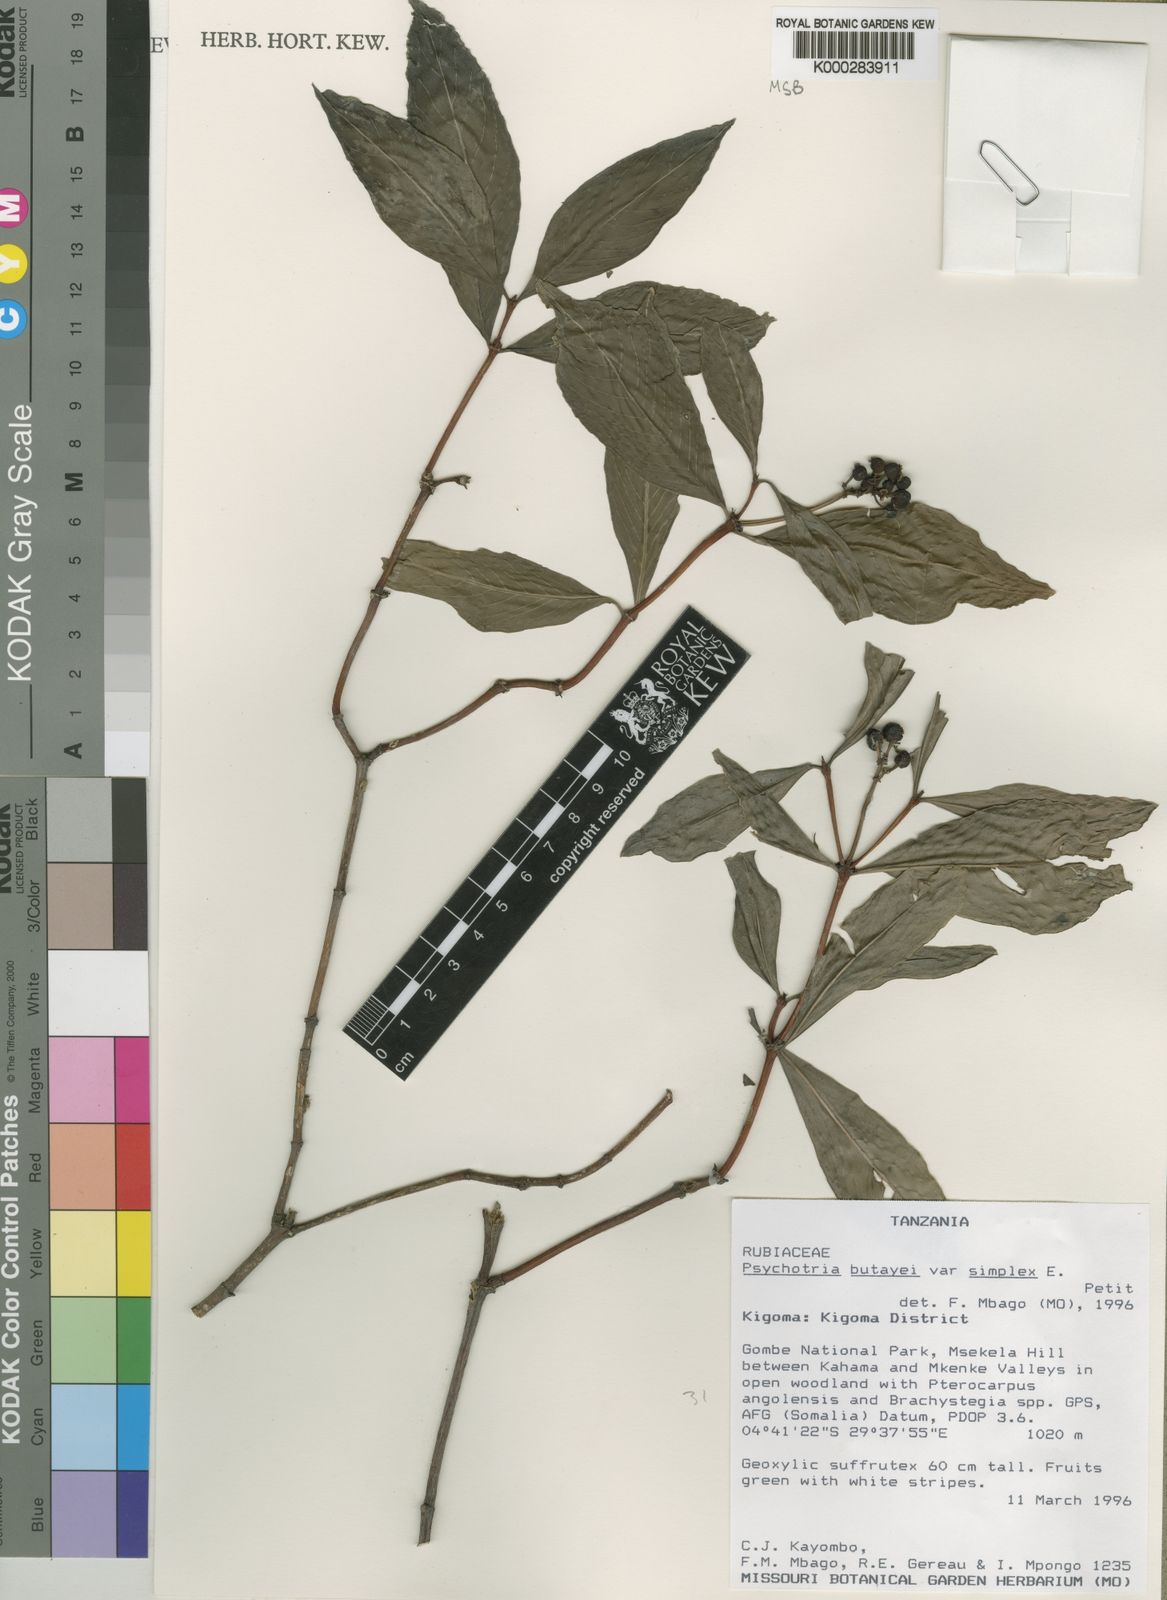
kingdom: Plantae
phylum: Tracheophyta
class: Magnoliopsida
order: Gentianales
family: Rubiaceae
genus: Psychotria
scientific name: Psychotria moninensis
